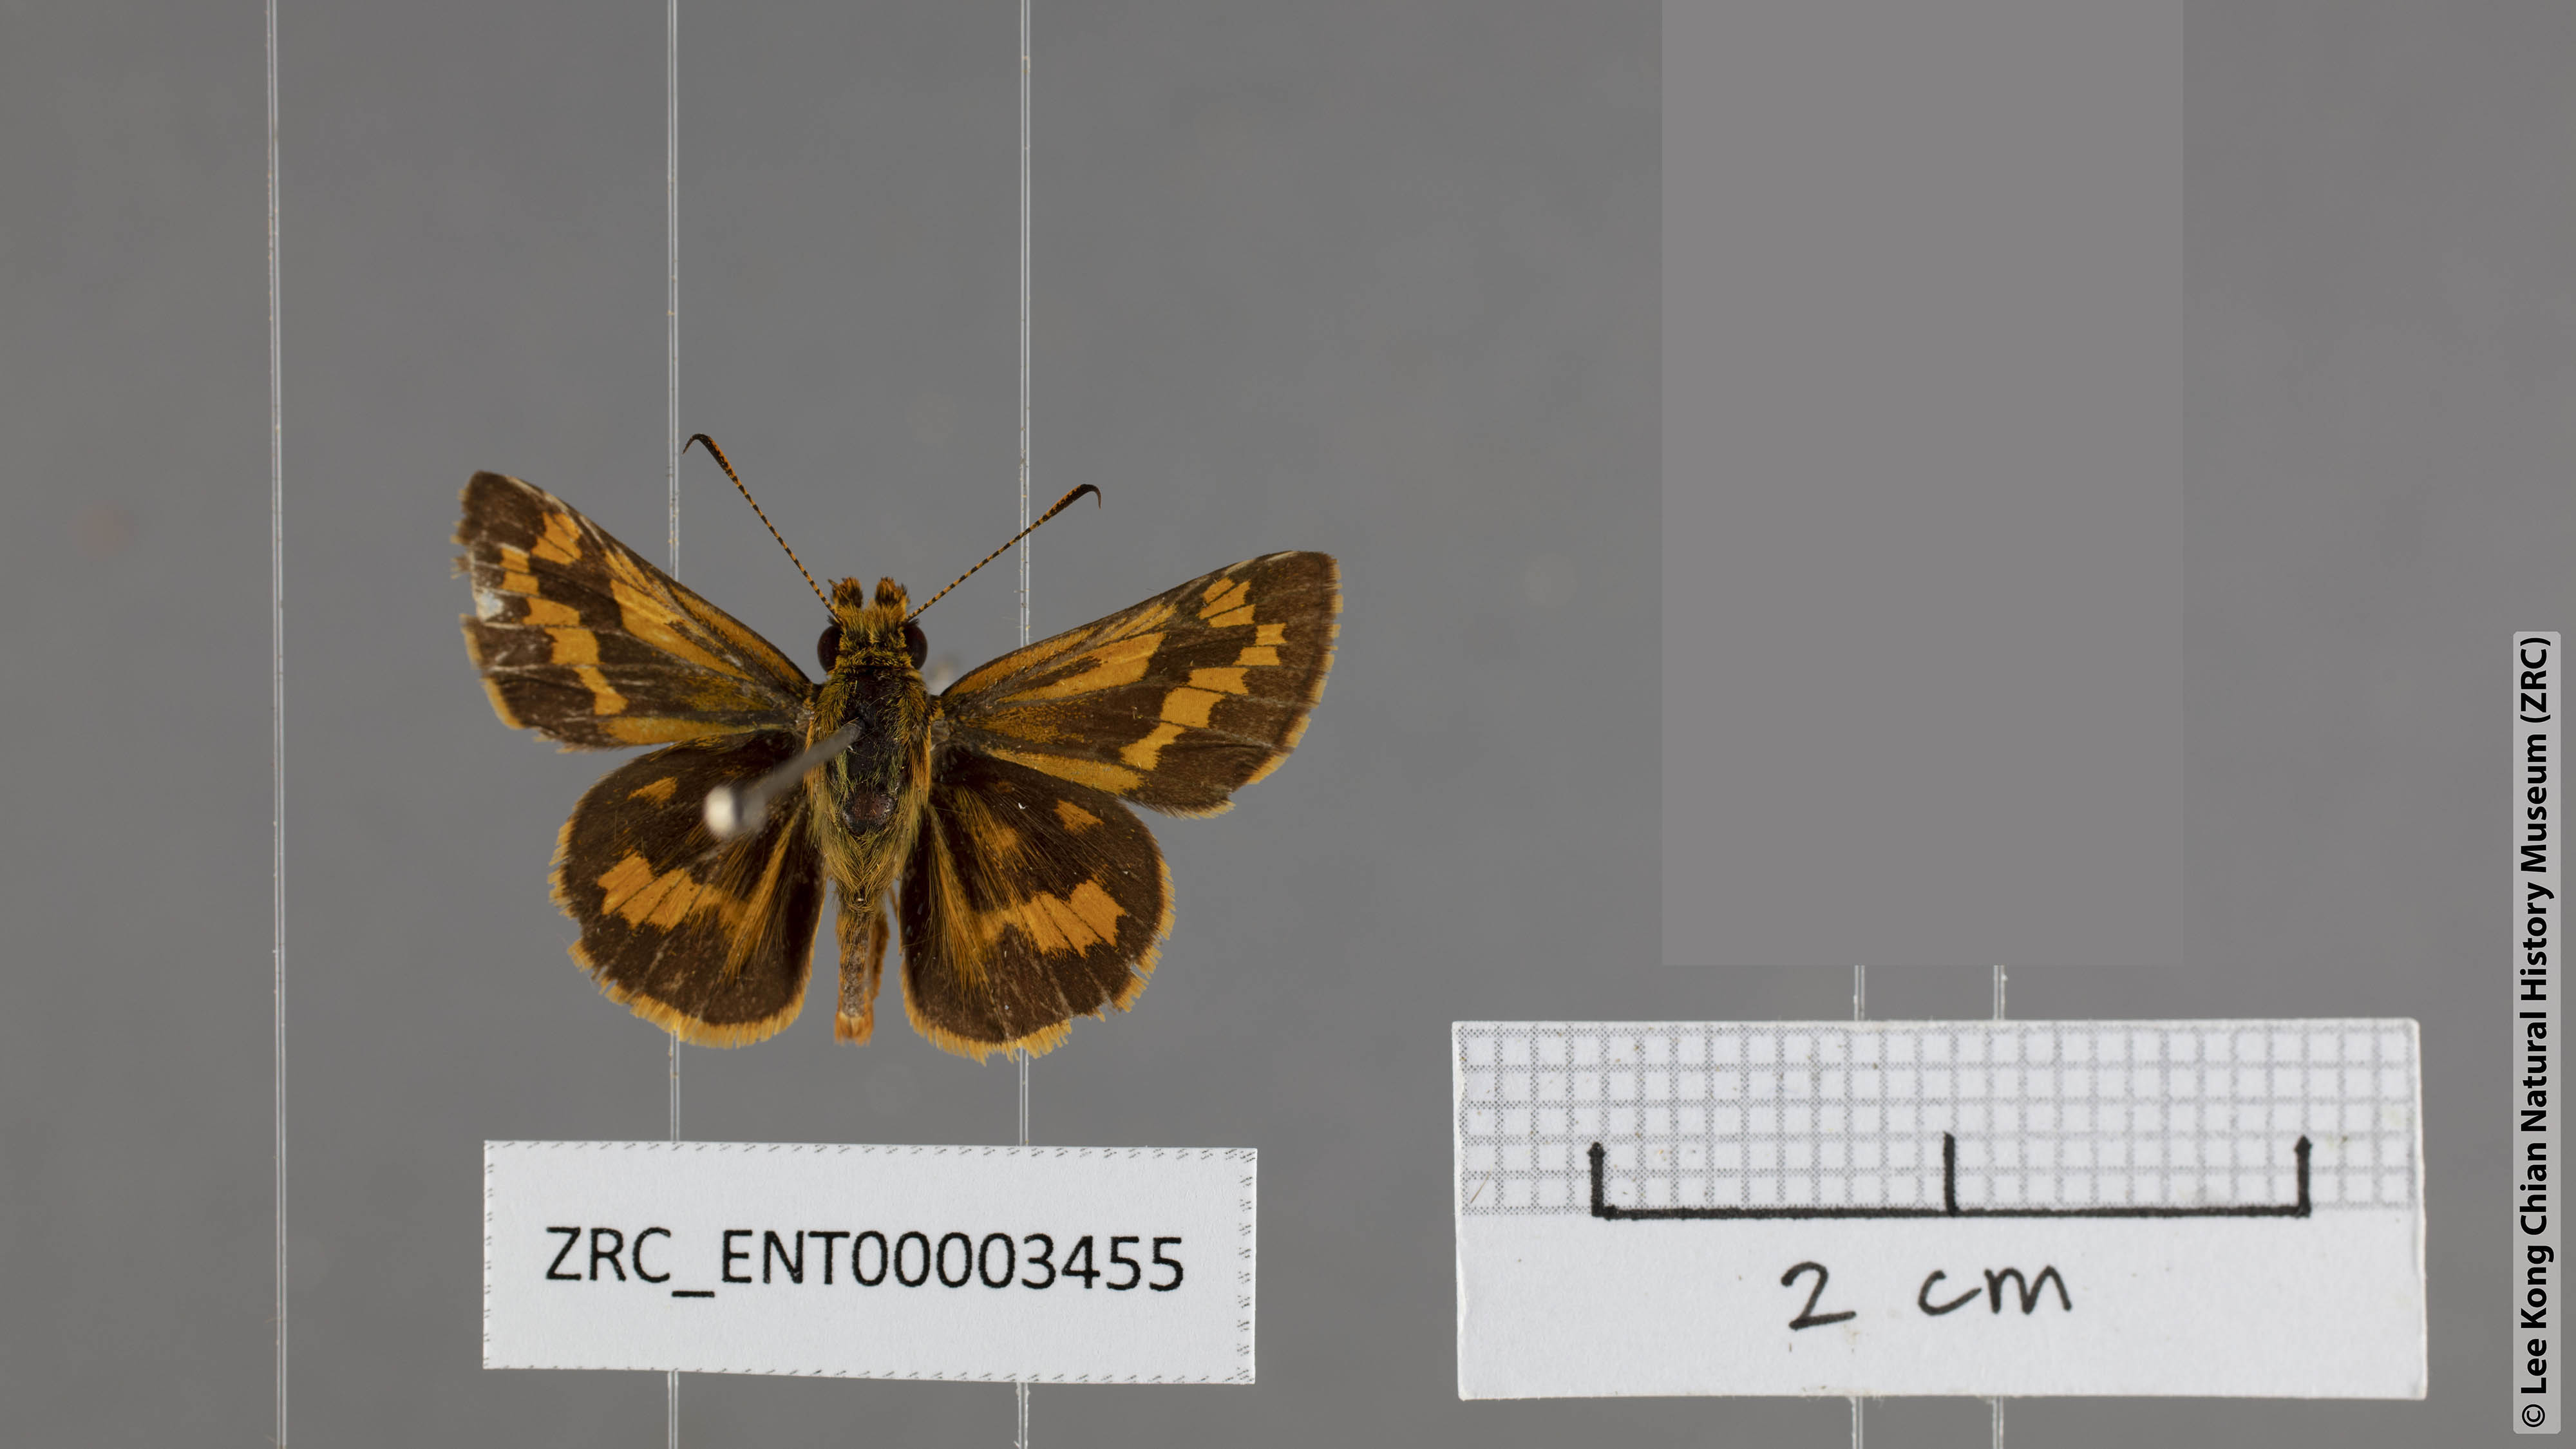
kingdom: Animalia
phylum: Arthropoda
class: Insecta
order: Lepidoptera
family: Hesperiidae
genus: Potanthus
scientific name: Potanthus chloe
